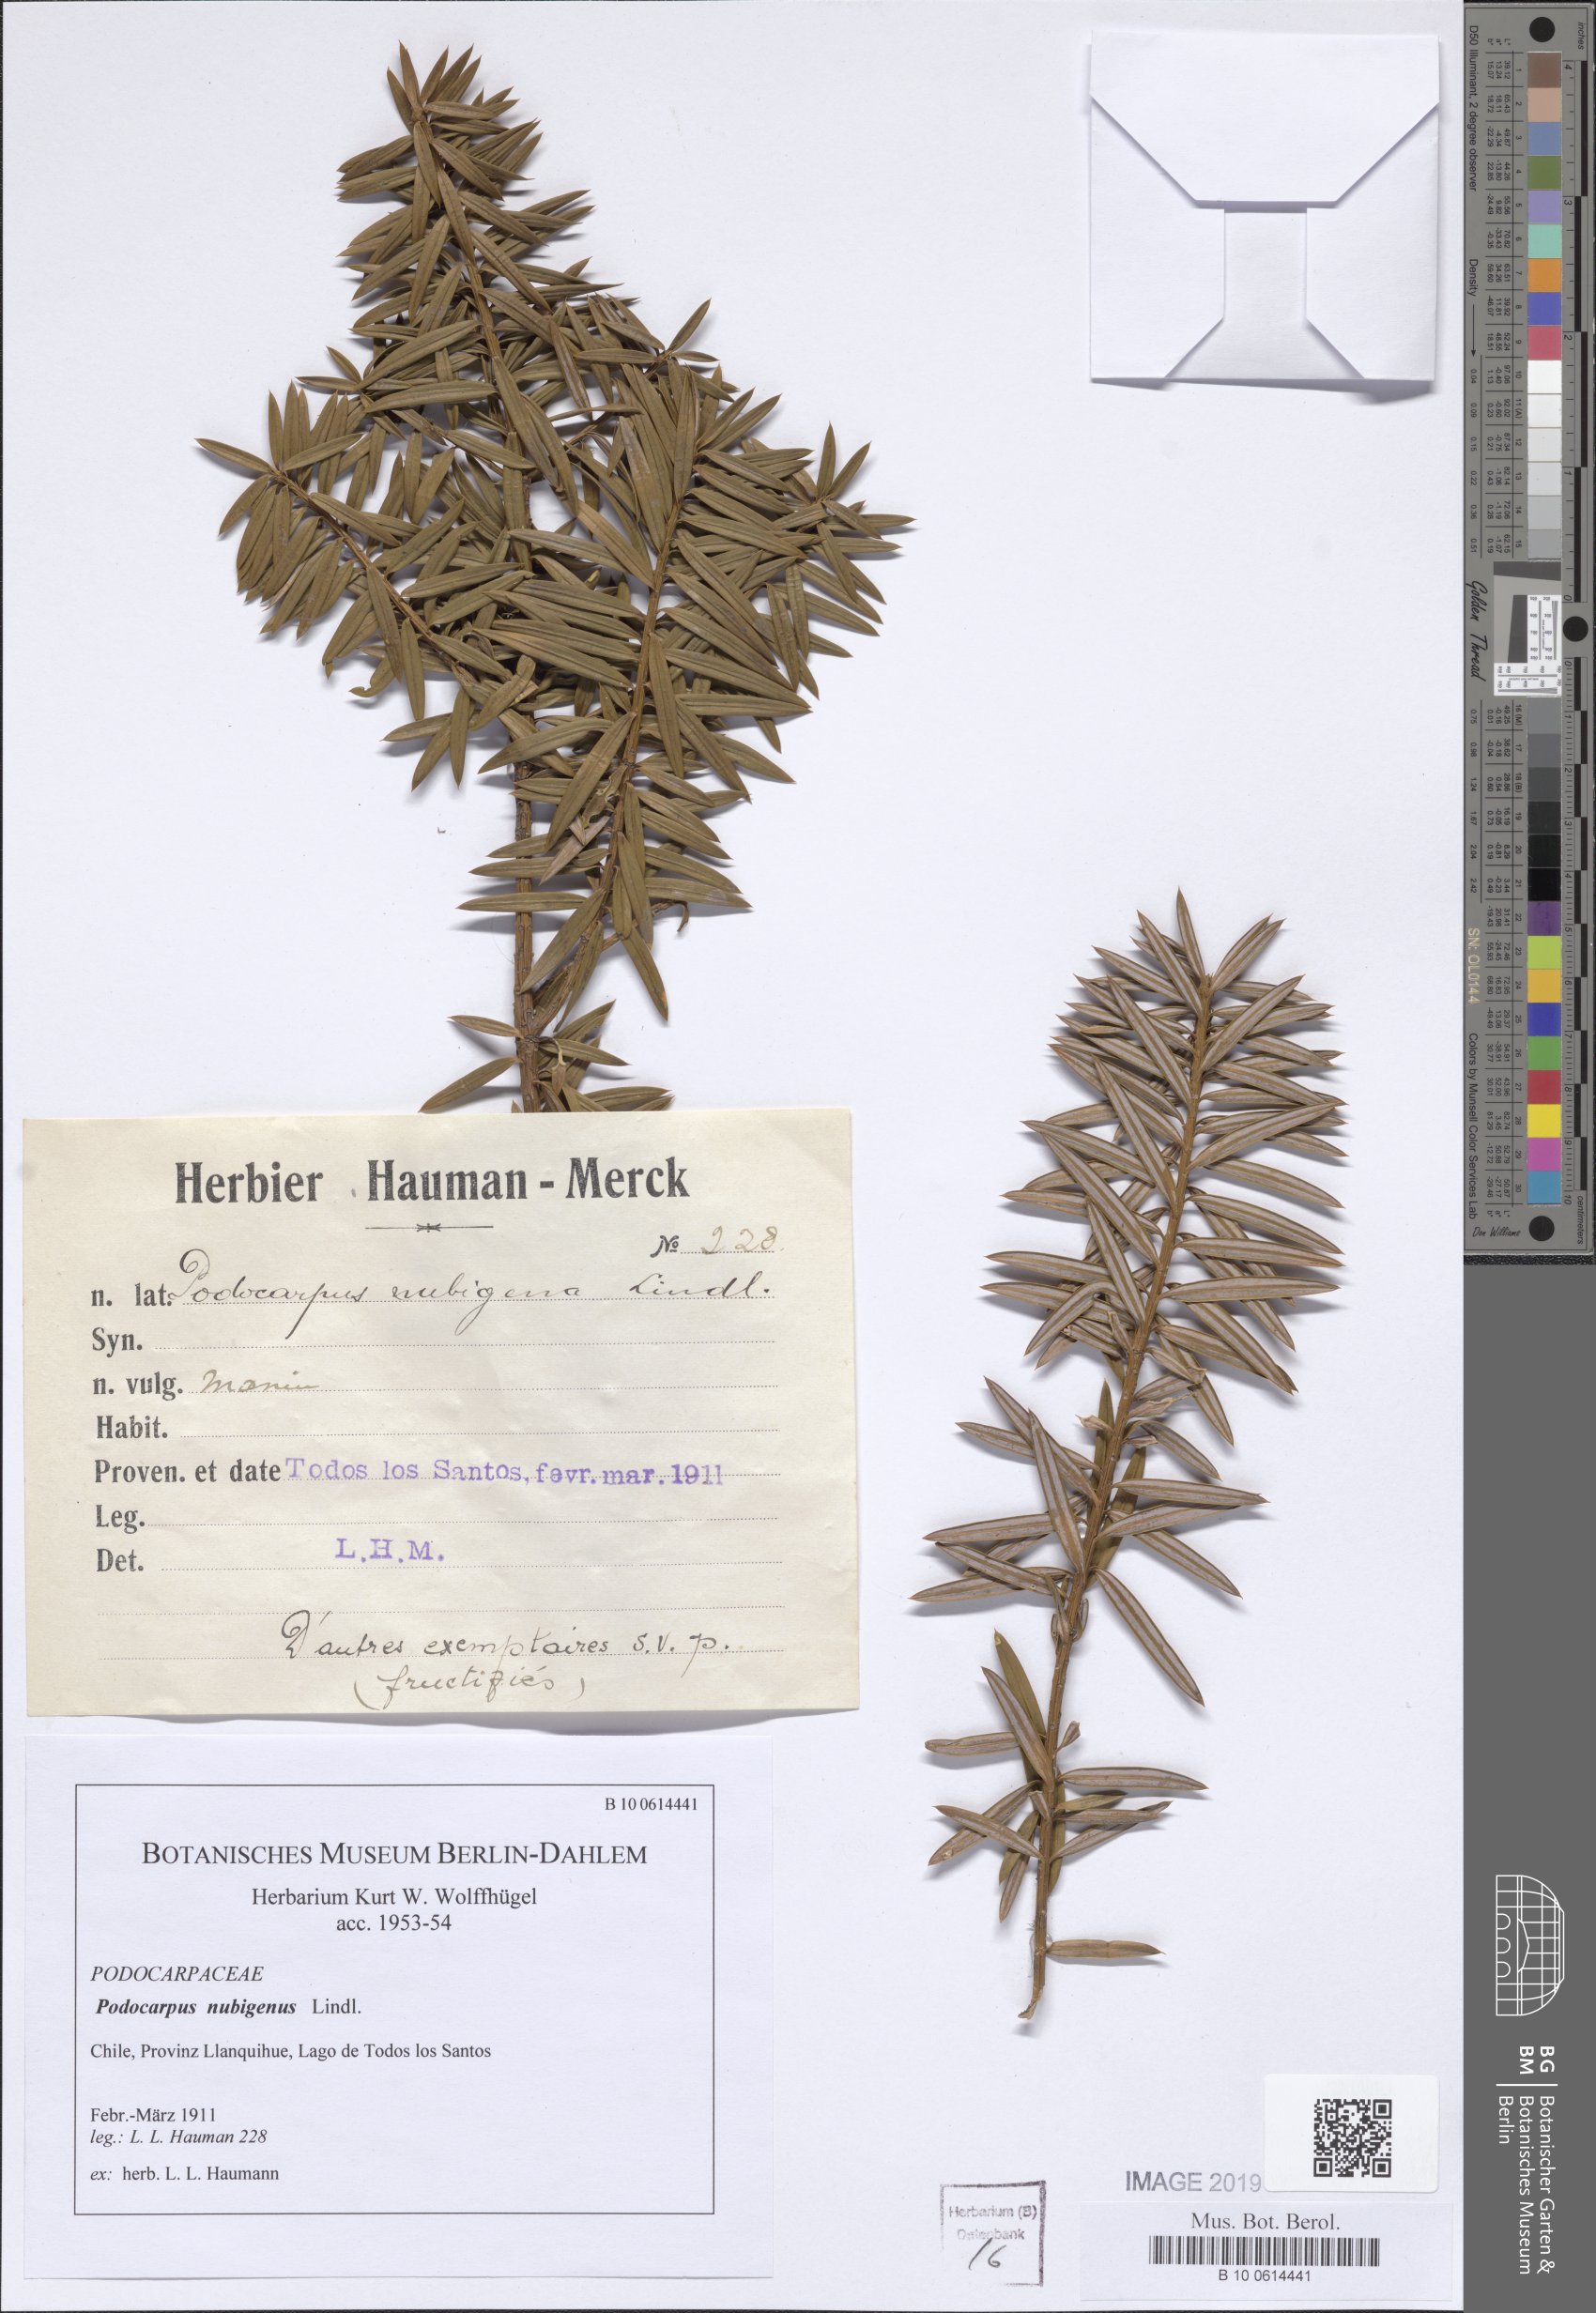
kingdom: Plantae
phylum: Tracheophyta
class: Pinopsida
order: Pinales
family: Podocarpaceae
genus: Podocarpus
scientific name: Podocarpus nubigenus
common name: Cloud podocarp
